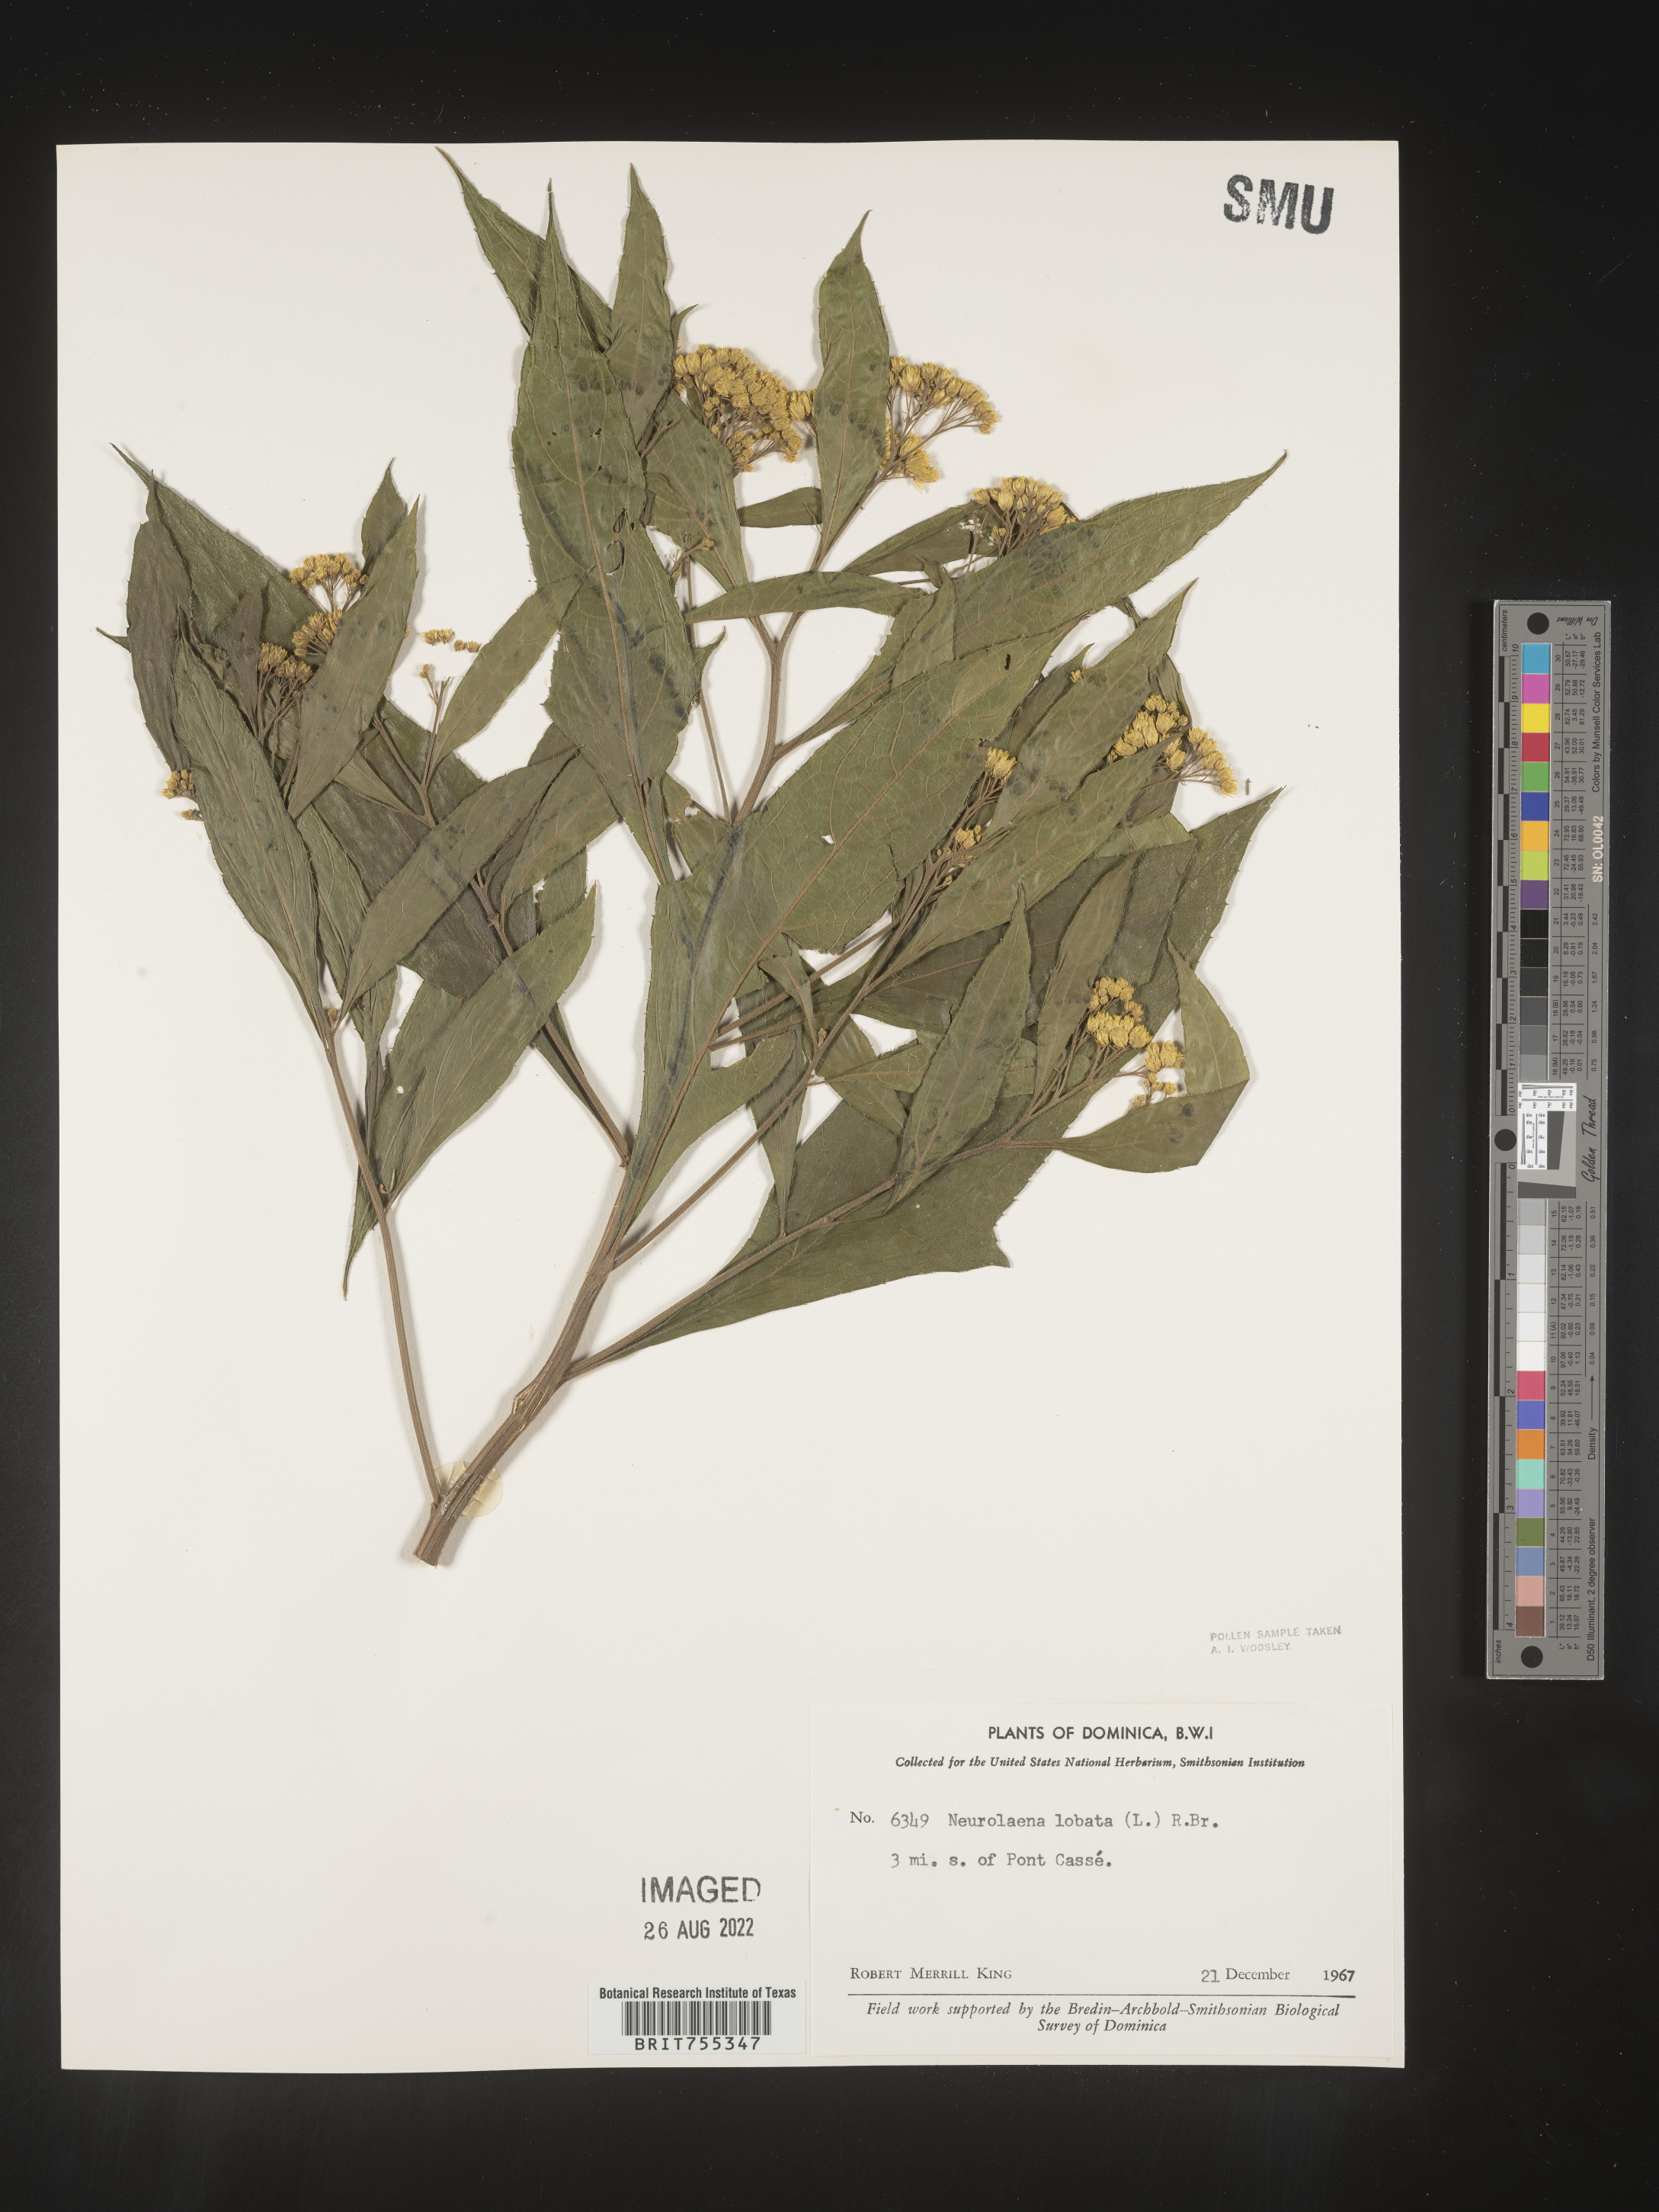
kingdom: Plantae
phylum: Tracheophyta
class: Magnoliopsida
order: Asterales
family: Asteraceae
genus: Neurolaena
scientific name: Neurolaena
